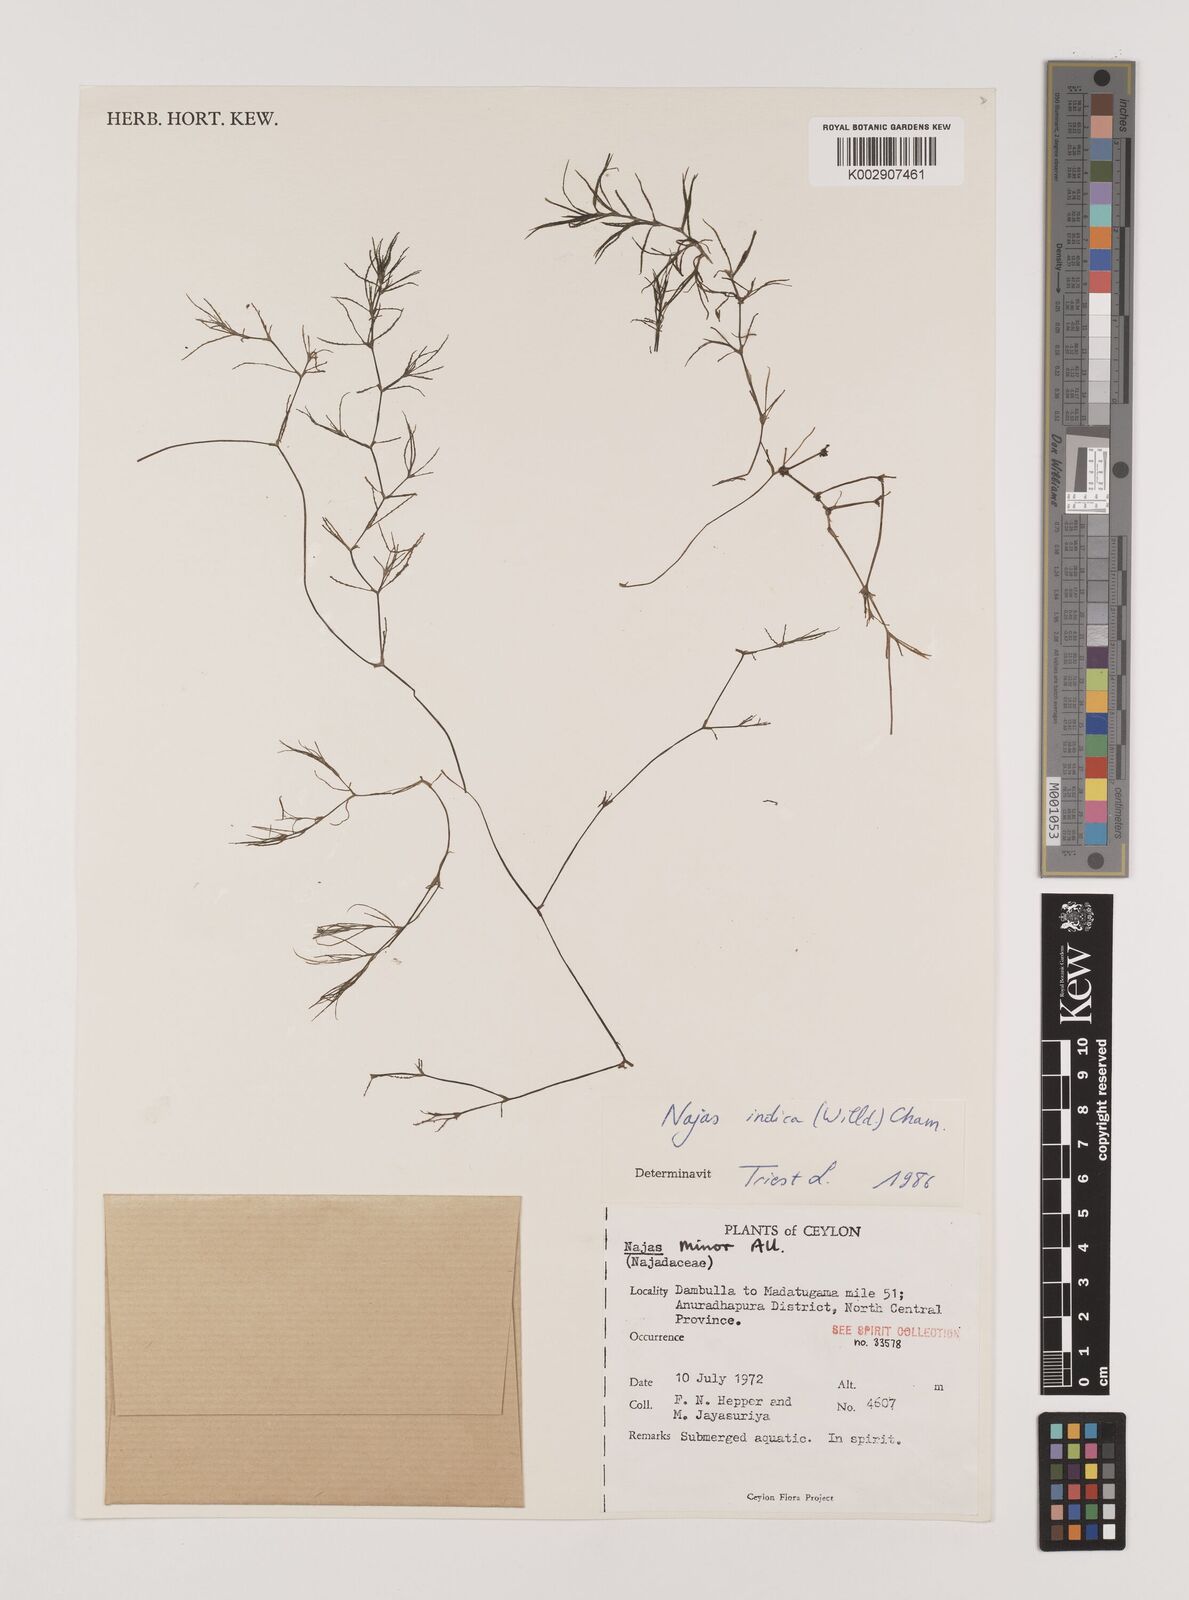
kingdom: Plantae
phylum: Tracheophyta
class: Liliopsida
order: Alismatales
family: Hydrocharitaceae
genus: Najas
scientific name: Najas indica
